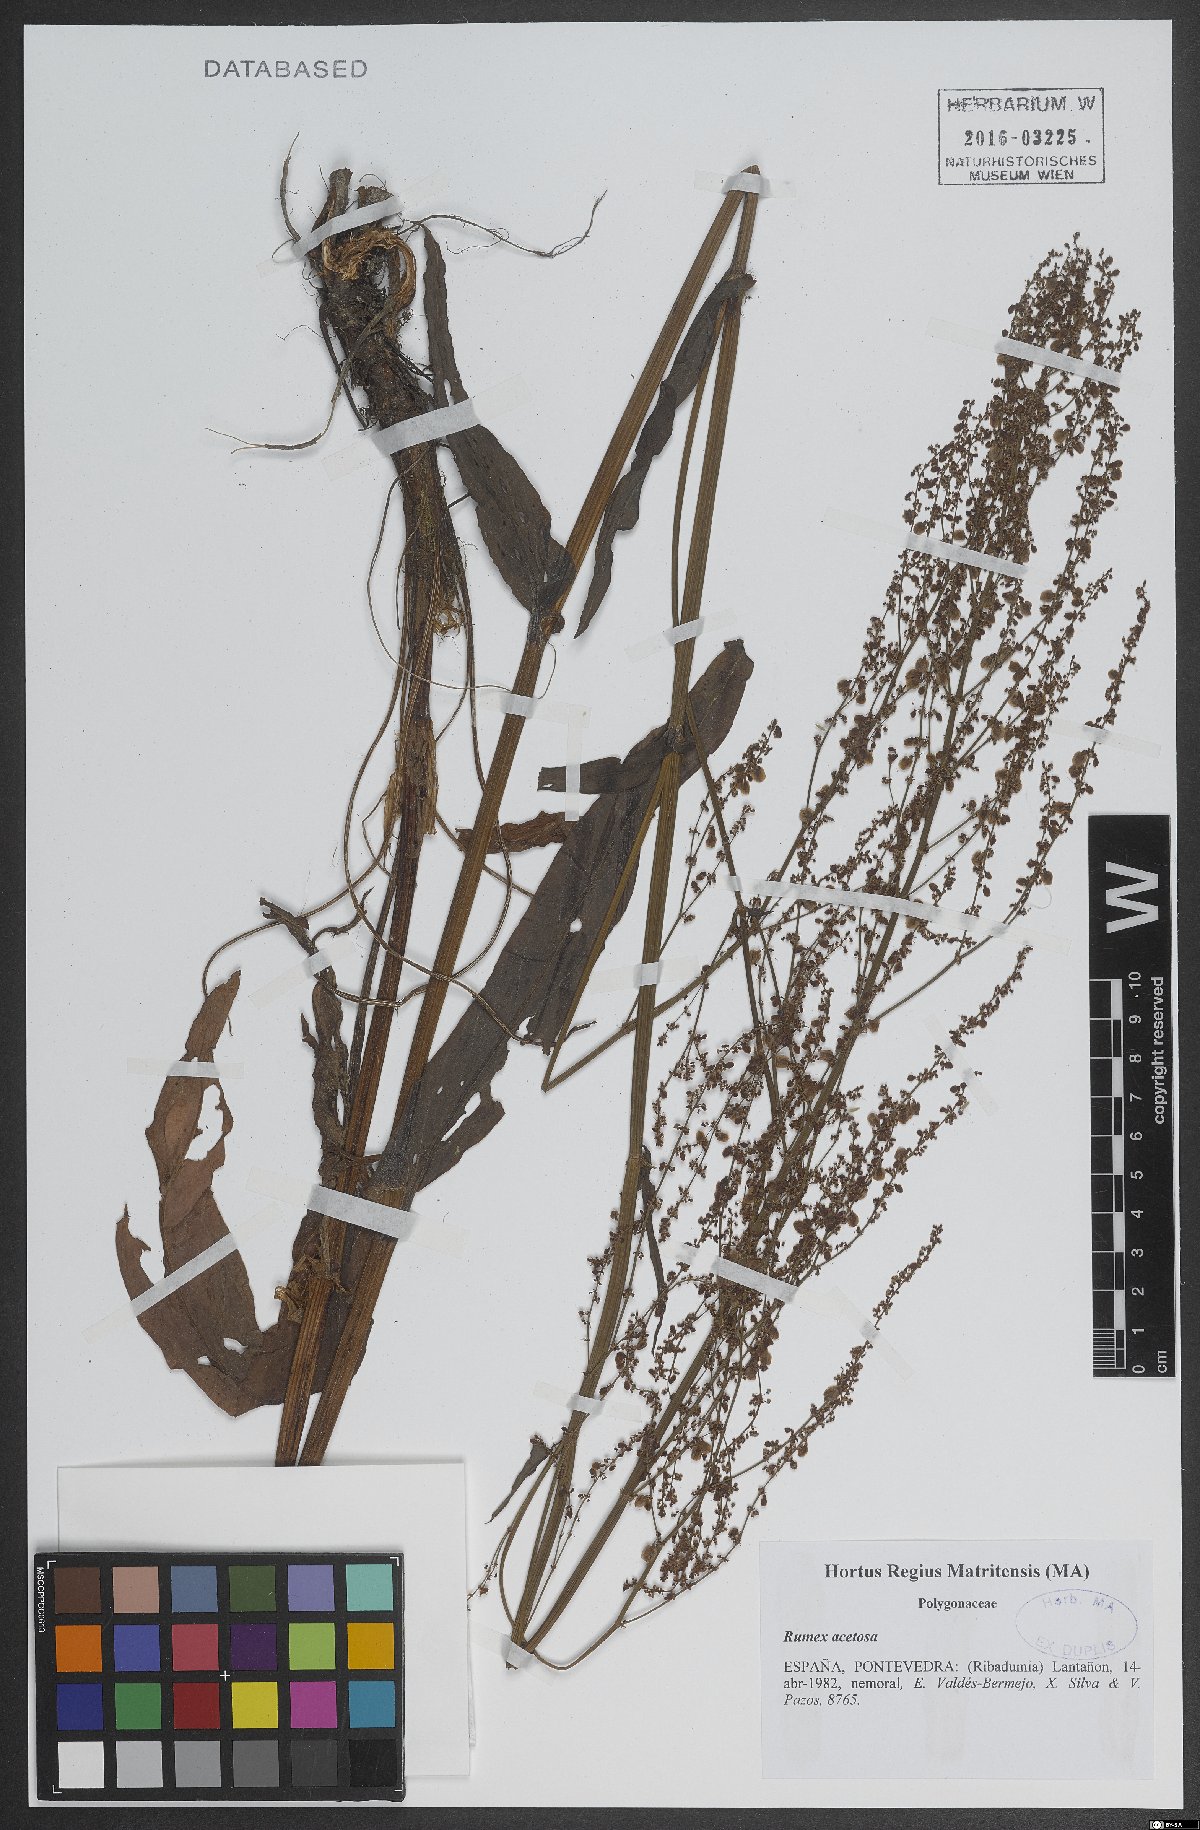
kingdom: Plantae
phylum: Tracheophyta
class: Magnoliopsida
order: Caryophyllales
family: Polygonaceae
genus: Rumex
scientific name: Rumex acetosa
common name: Garden sorrel
